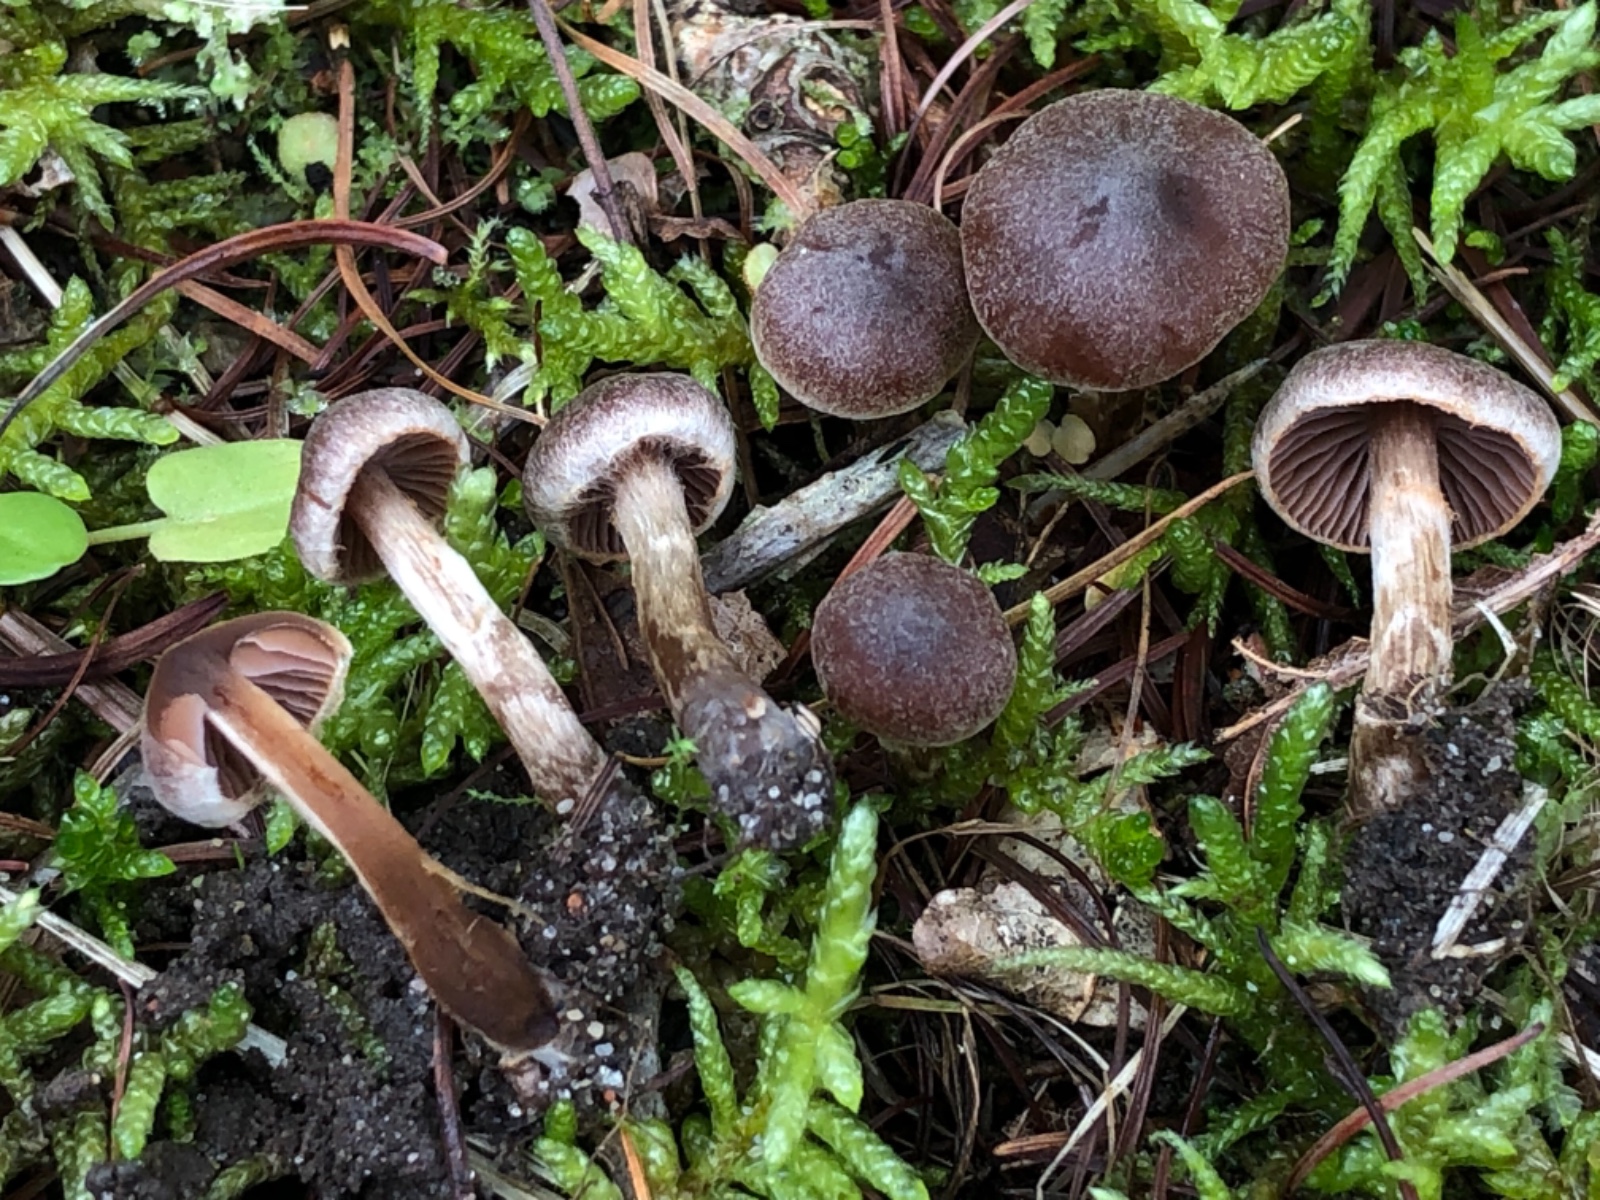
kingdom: Fungi
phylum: Basidiomycota
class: Agaricomycetes
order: Agaricales
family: Cortinariaceae
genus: Cortinarius
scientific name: Cortinarius desertorum
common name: skær slørhat
